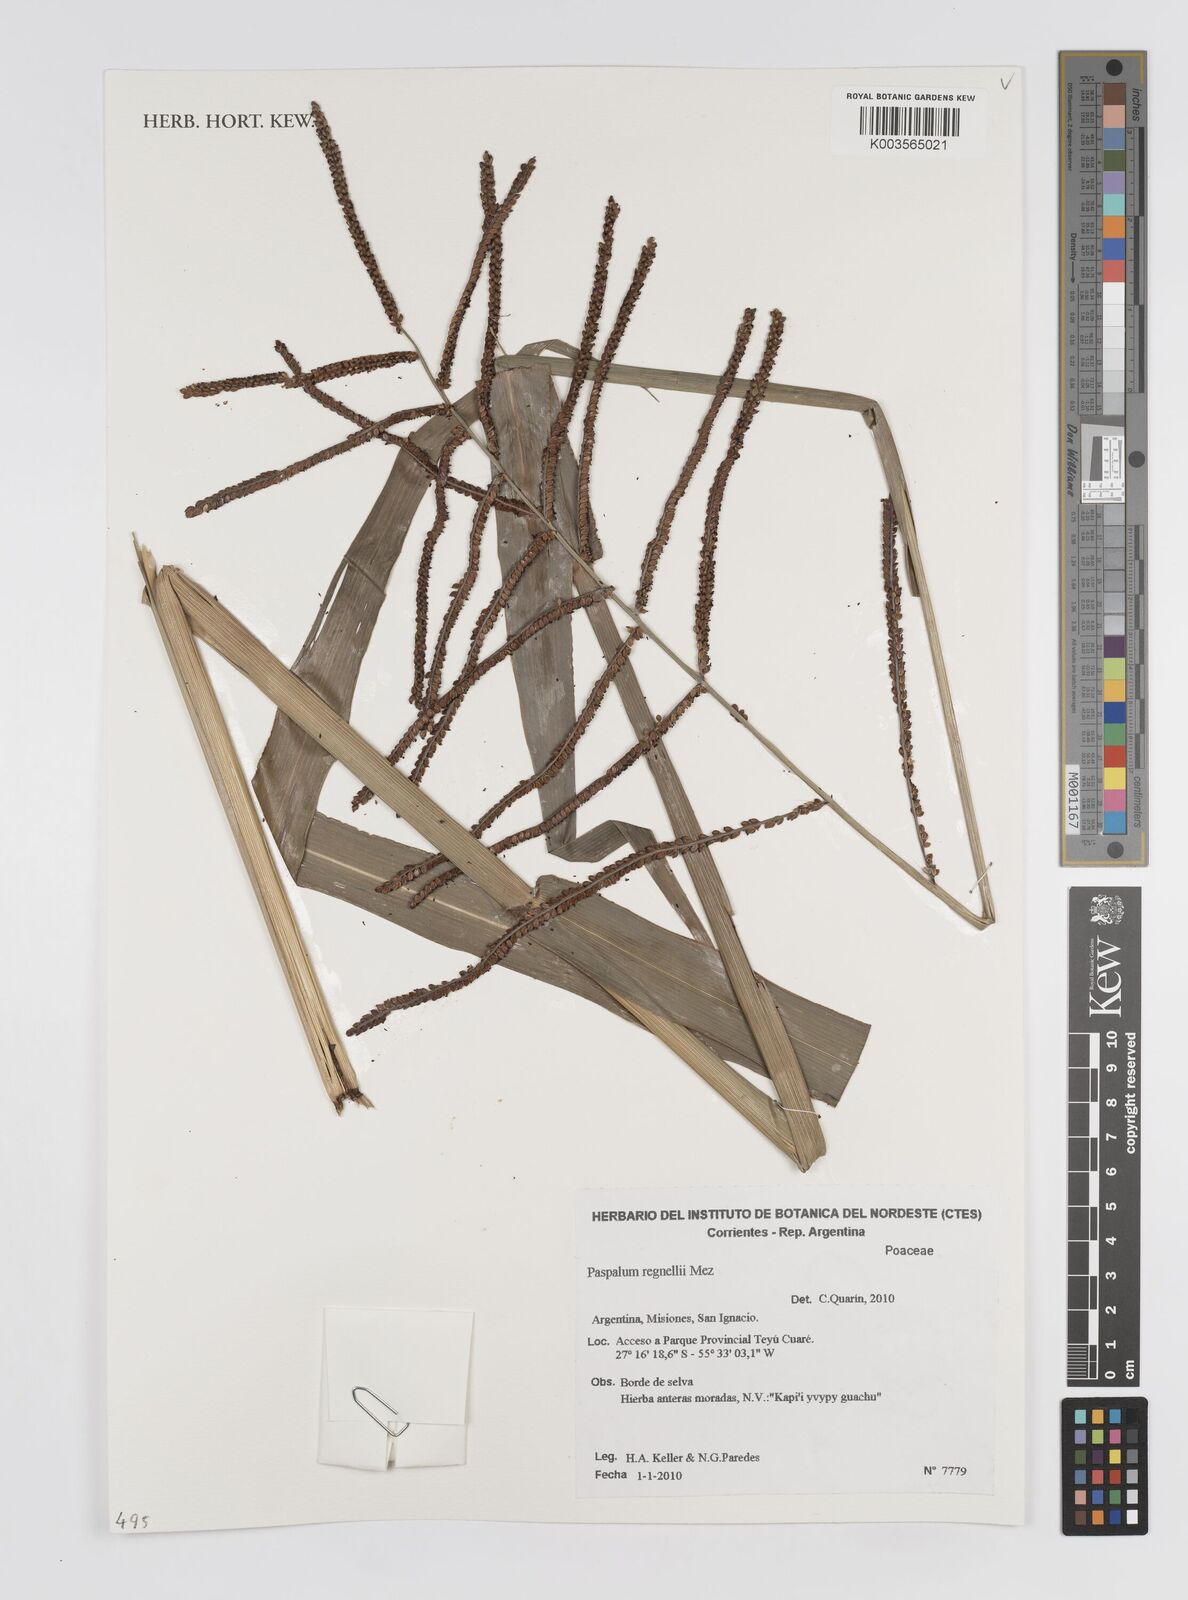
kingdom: Plantae
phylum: Tracheophyta
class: Liliopsida
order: Poales
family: Poaceae
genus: Paspalum
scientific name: Paspalum regnellii
